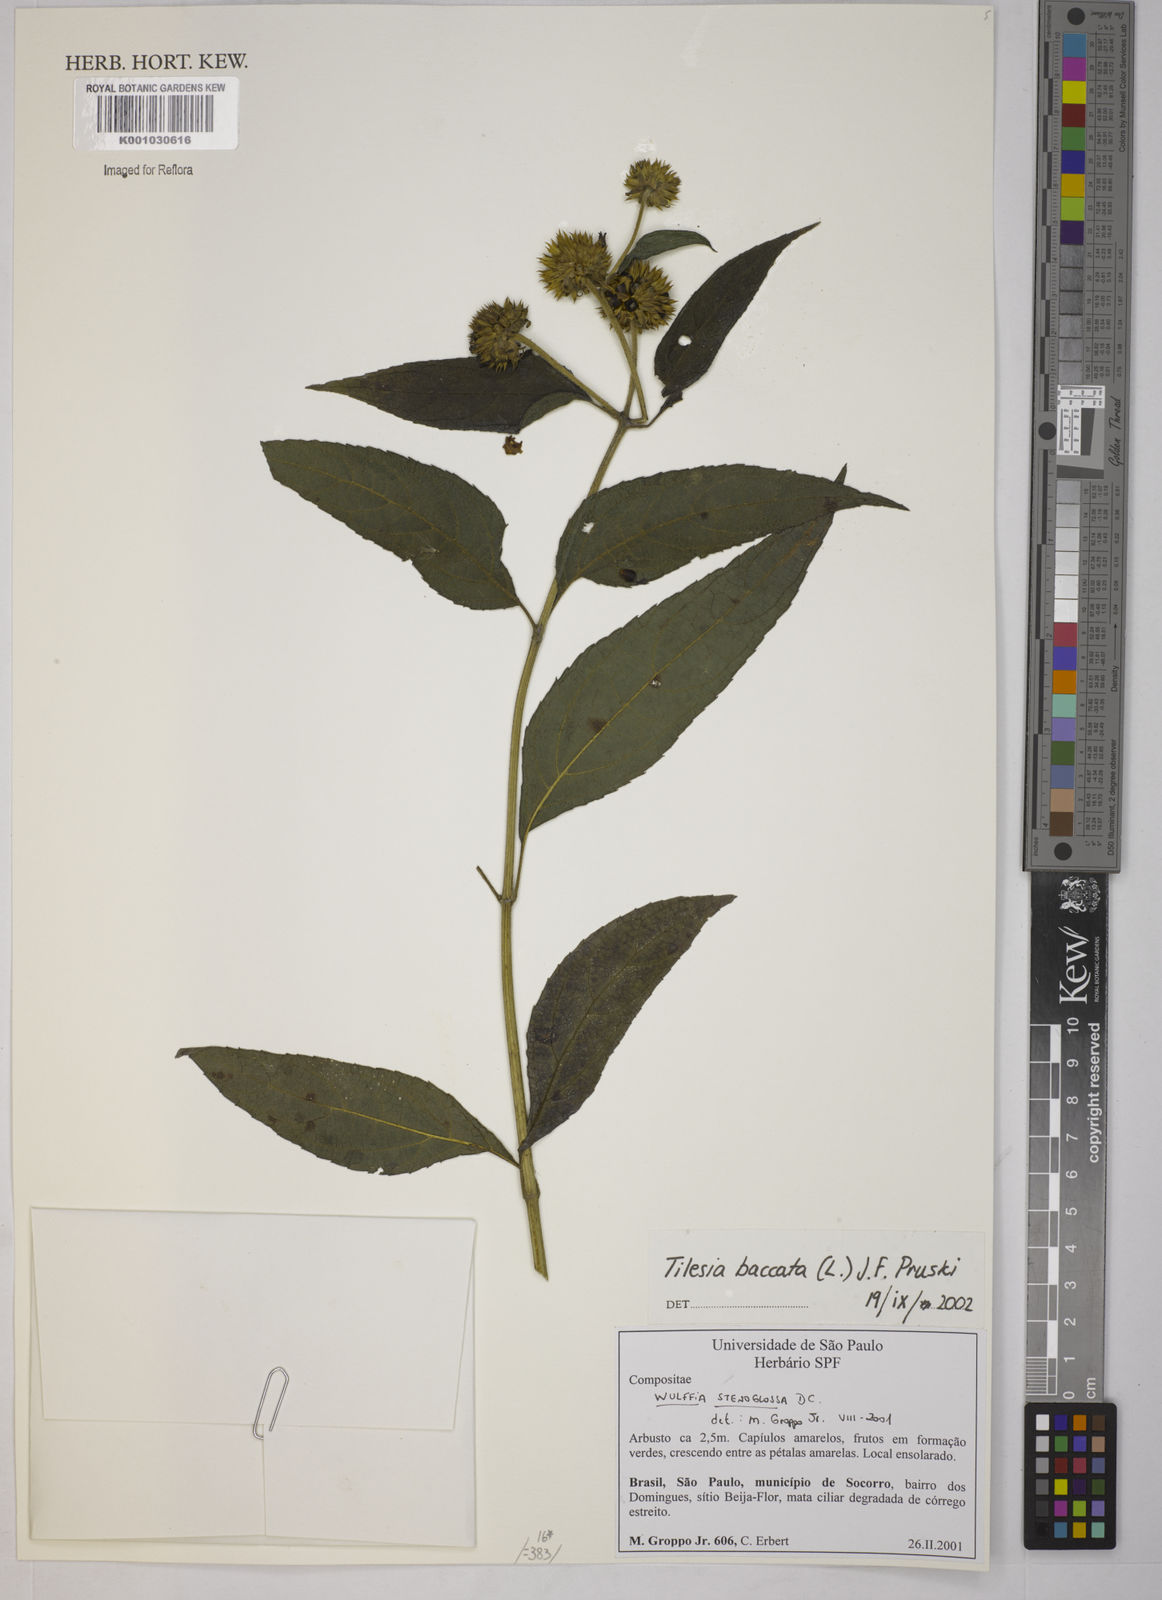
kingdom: Plantae
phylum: Tracheophyta
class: Magnoliopsida
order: Asterales
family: Asteraceae
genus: Tilesia
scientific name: Tilesia baccata
